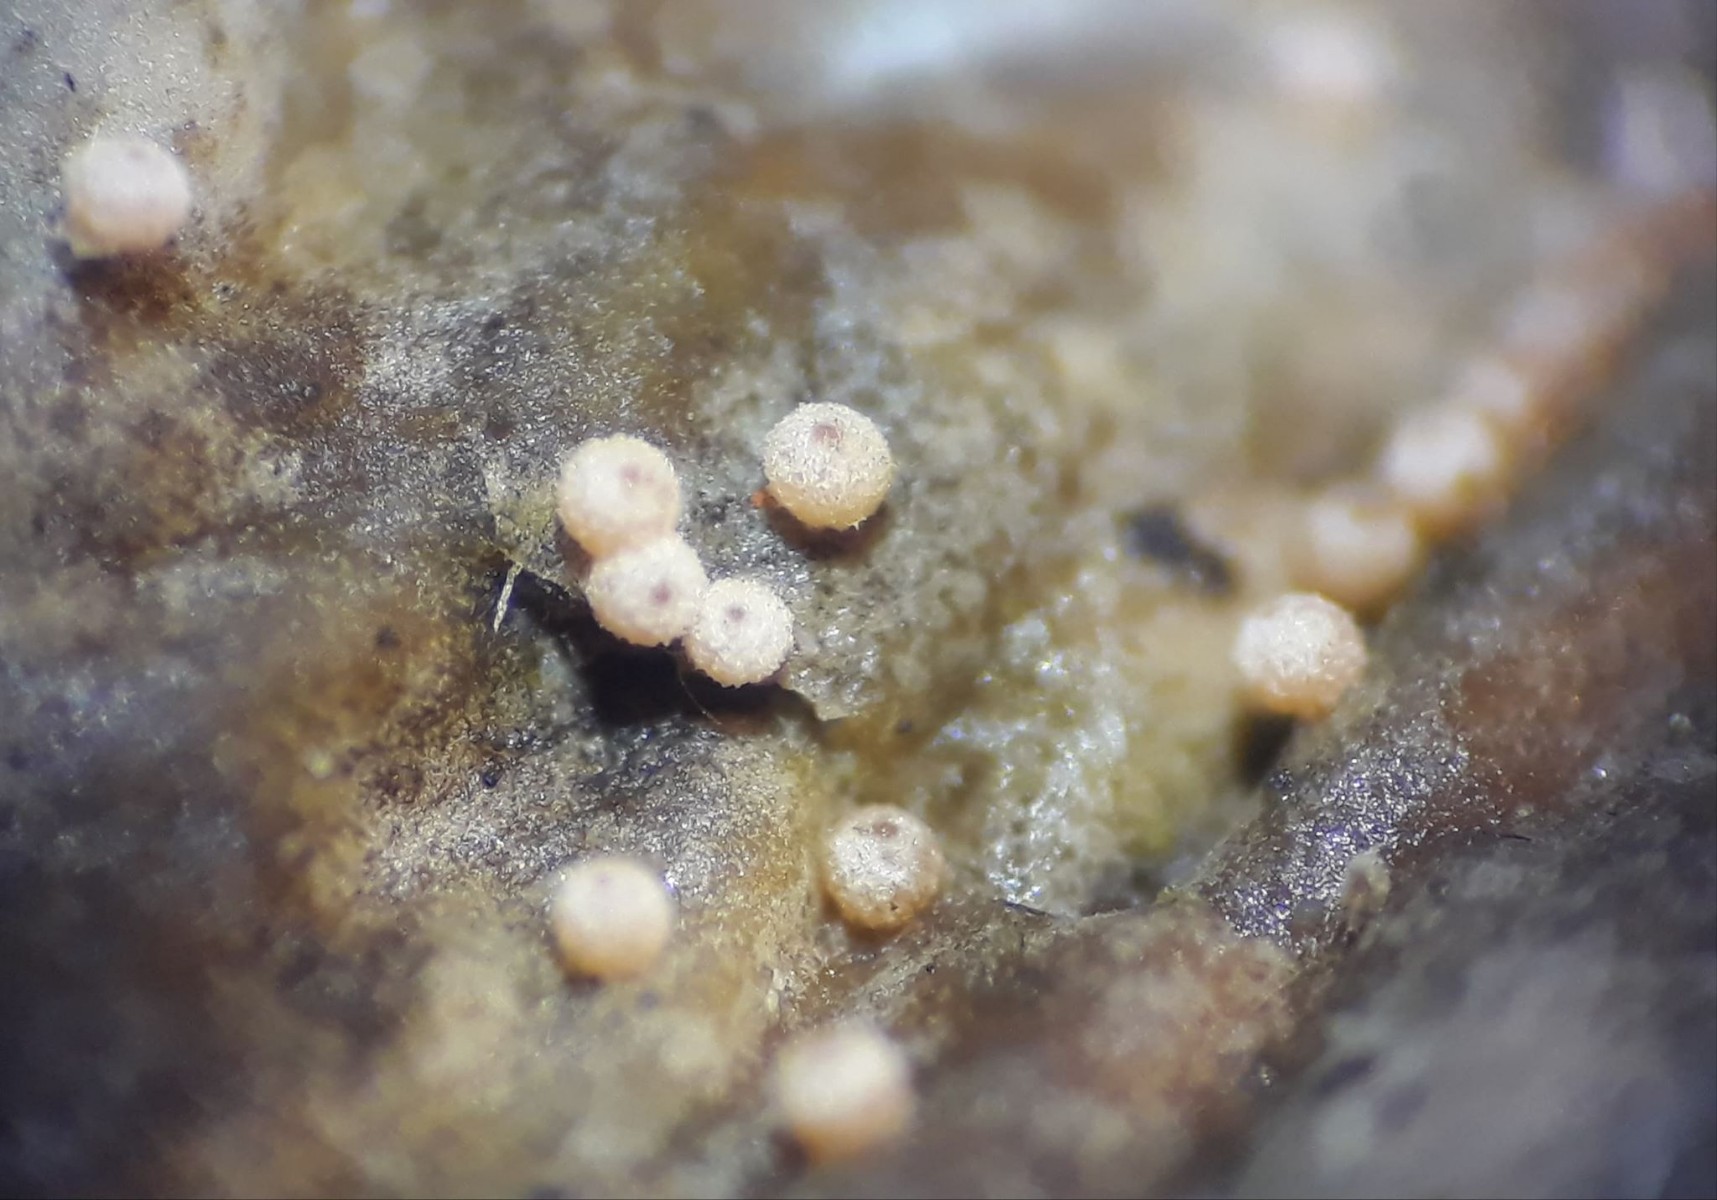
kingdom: Fungi
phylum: Ascomycota
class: Sordariomycetes
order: Hypocreales
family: Bionectriaceae
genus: Nectriopsis
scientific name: Nectriopsis lecanodes
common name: skjoldlav-gyldenkerne
